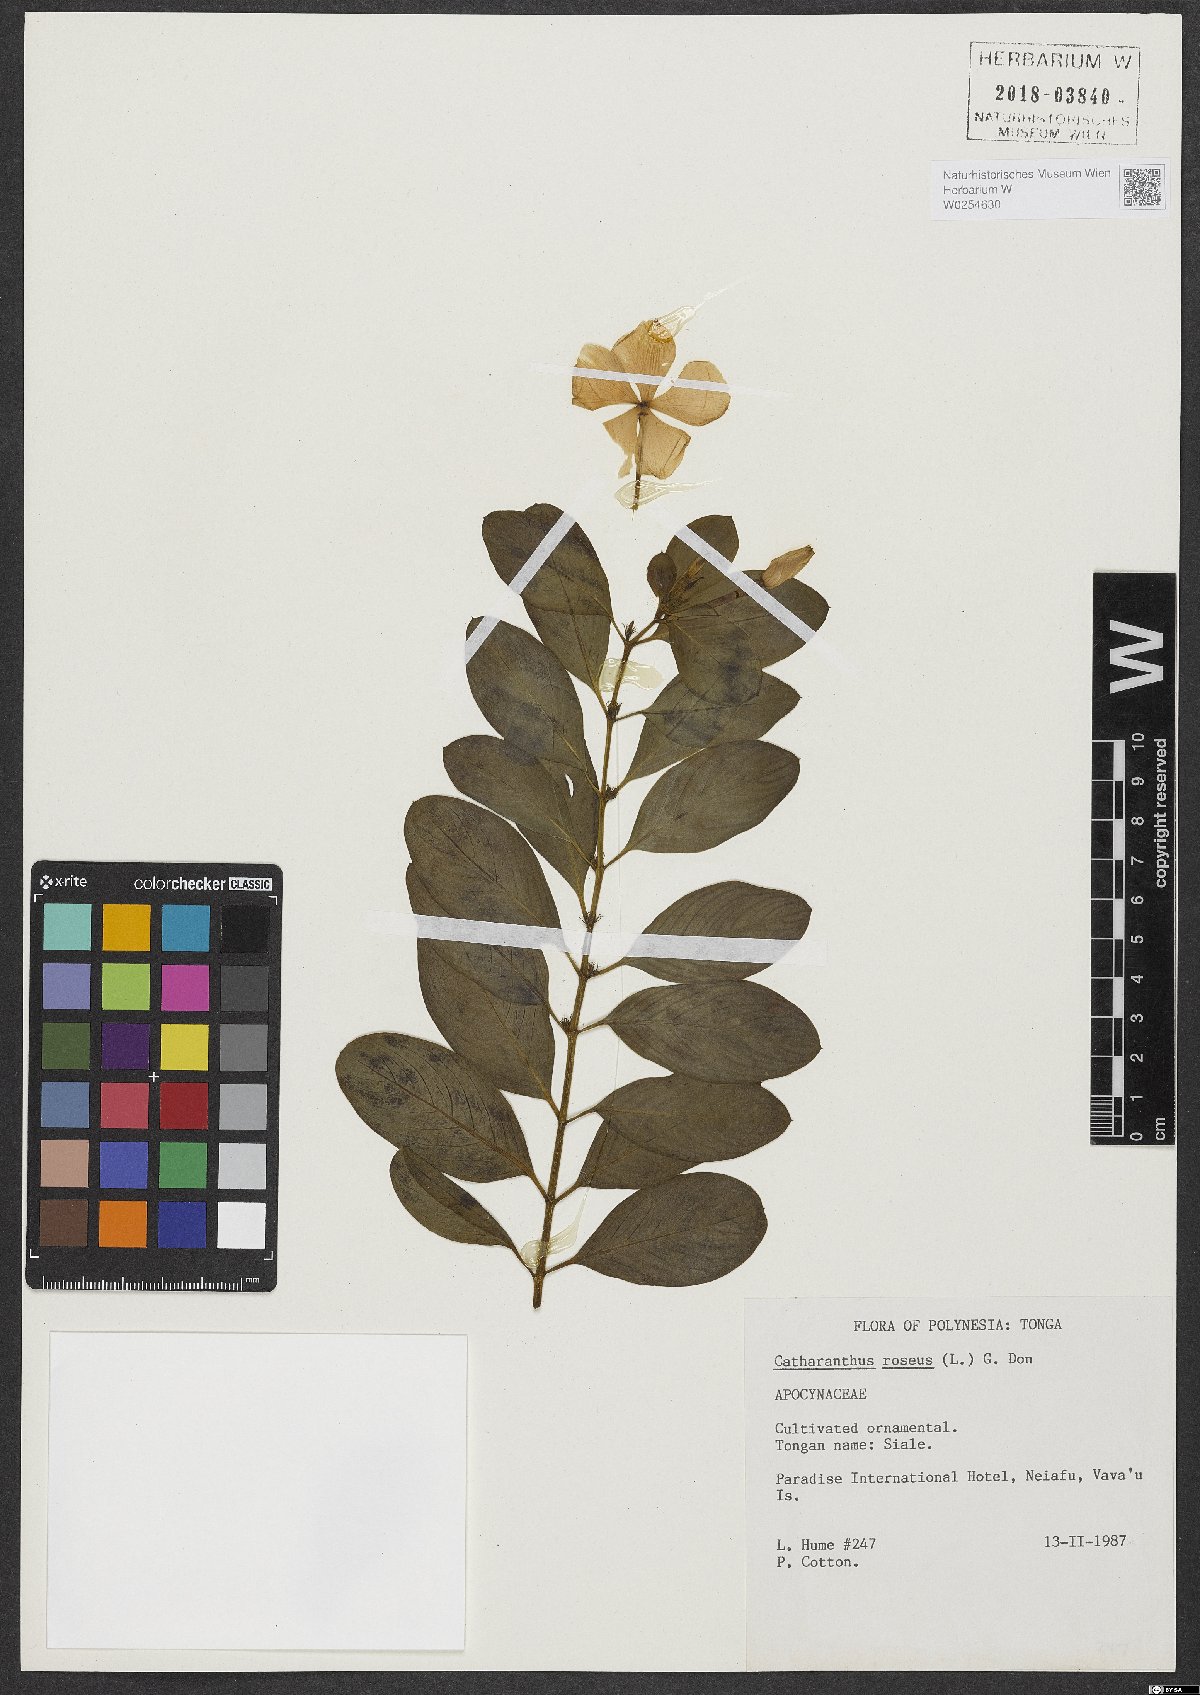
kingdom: Plantae
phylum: Tracheophyta
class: Magnoliopsida
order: Gentianales
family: Apocynaceae
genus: Catharanthus
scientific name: Catharanthus roseus
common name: Madagascar periwinkle
